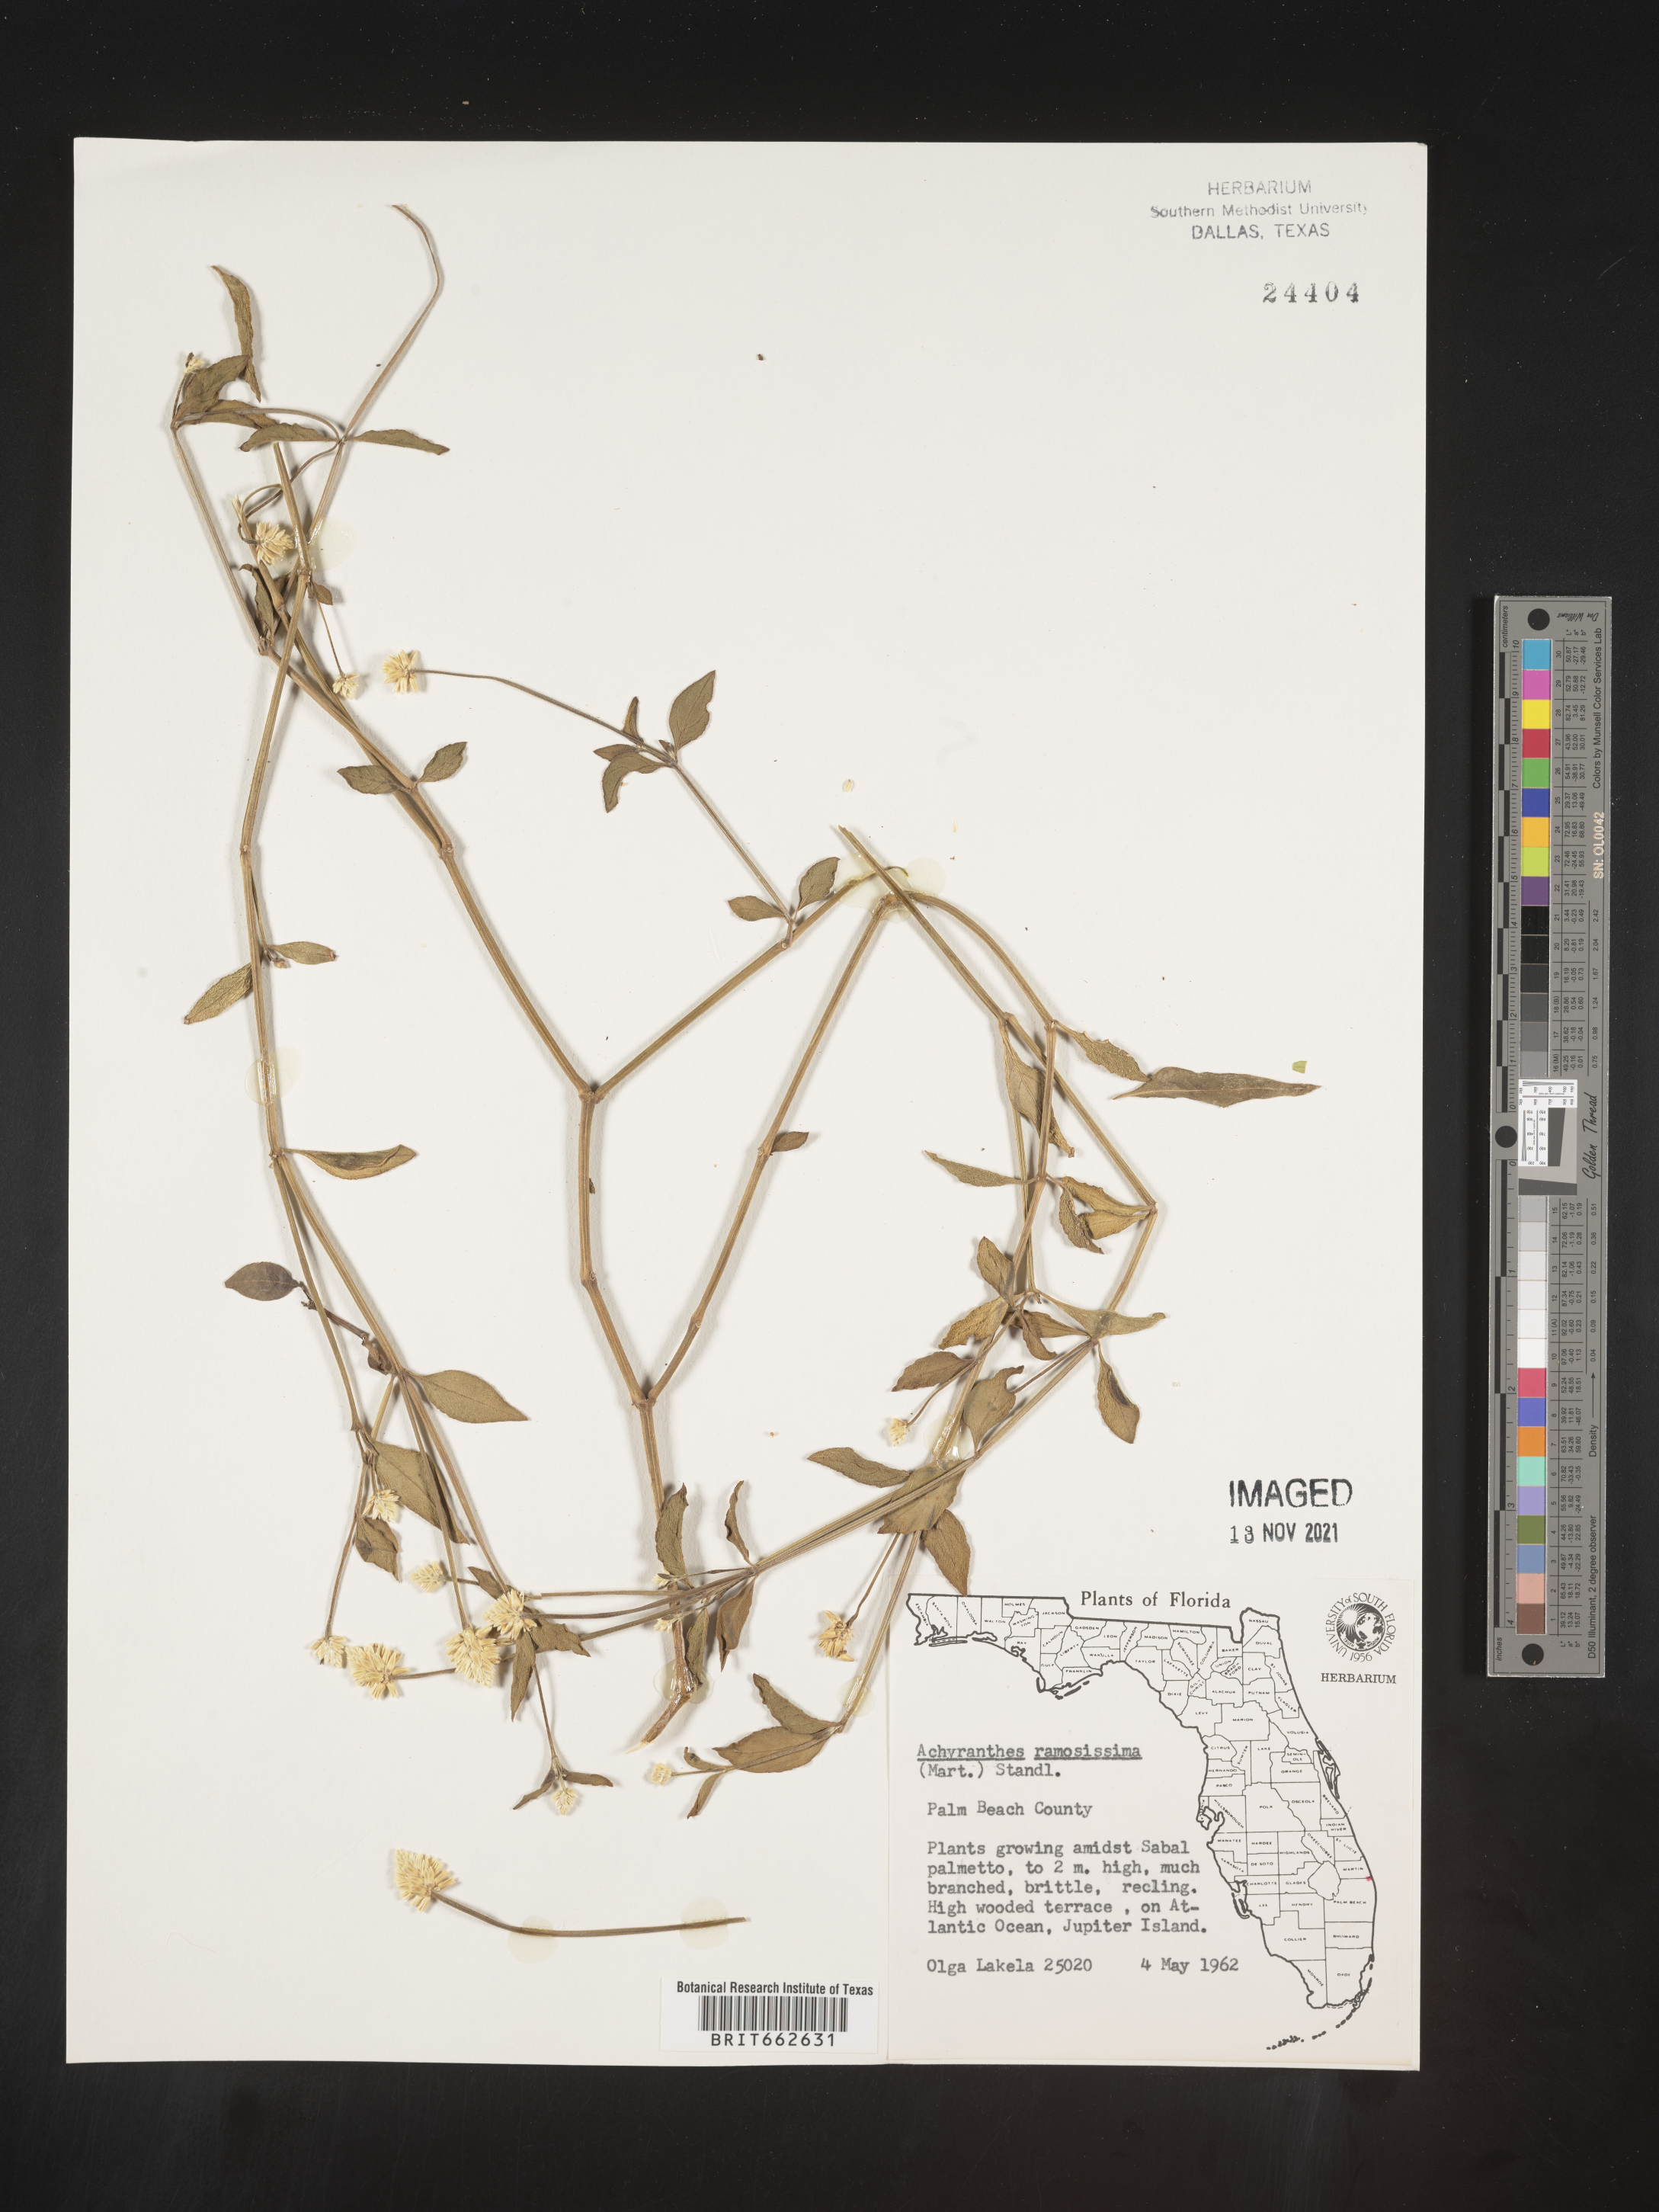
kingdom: Plantae
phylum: Tracheophyta
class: Magnoliopsida
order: Caryophyllales
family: Amaranthaceae
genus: Alternanthera
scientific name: Alternanthera ramosissima
